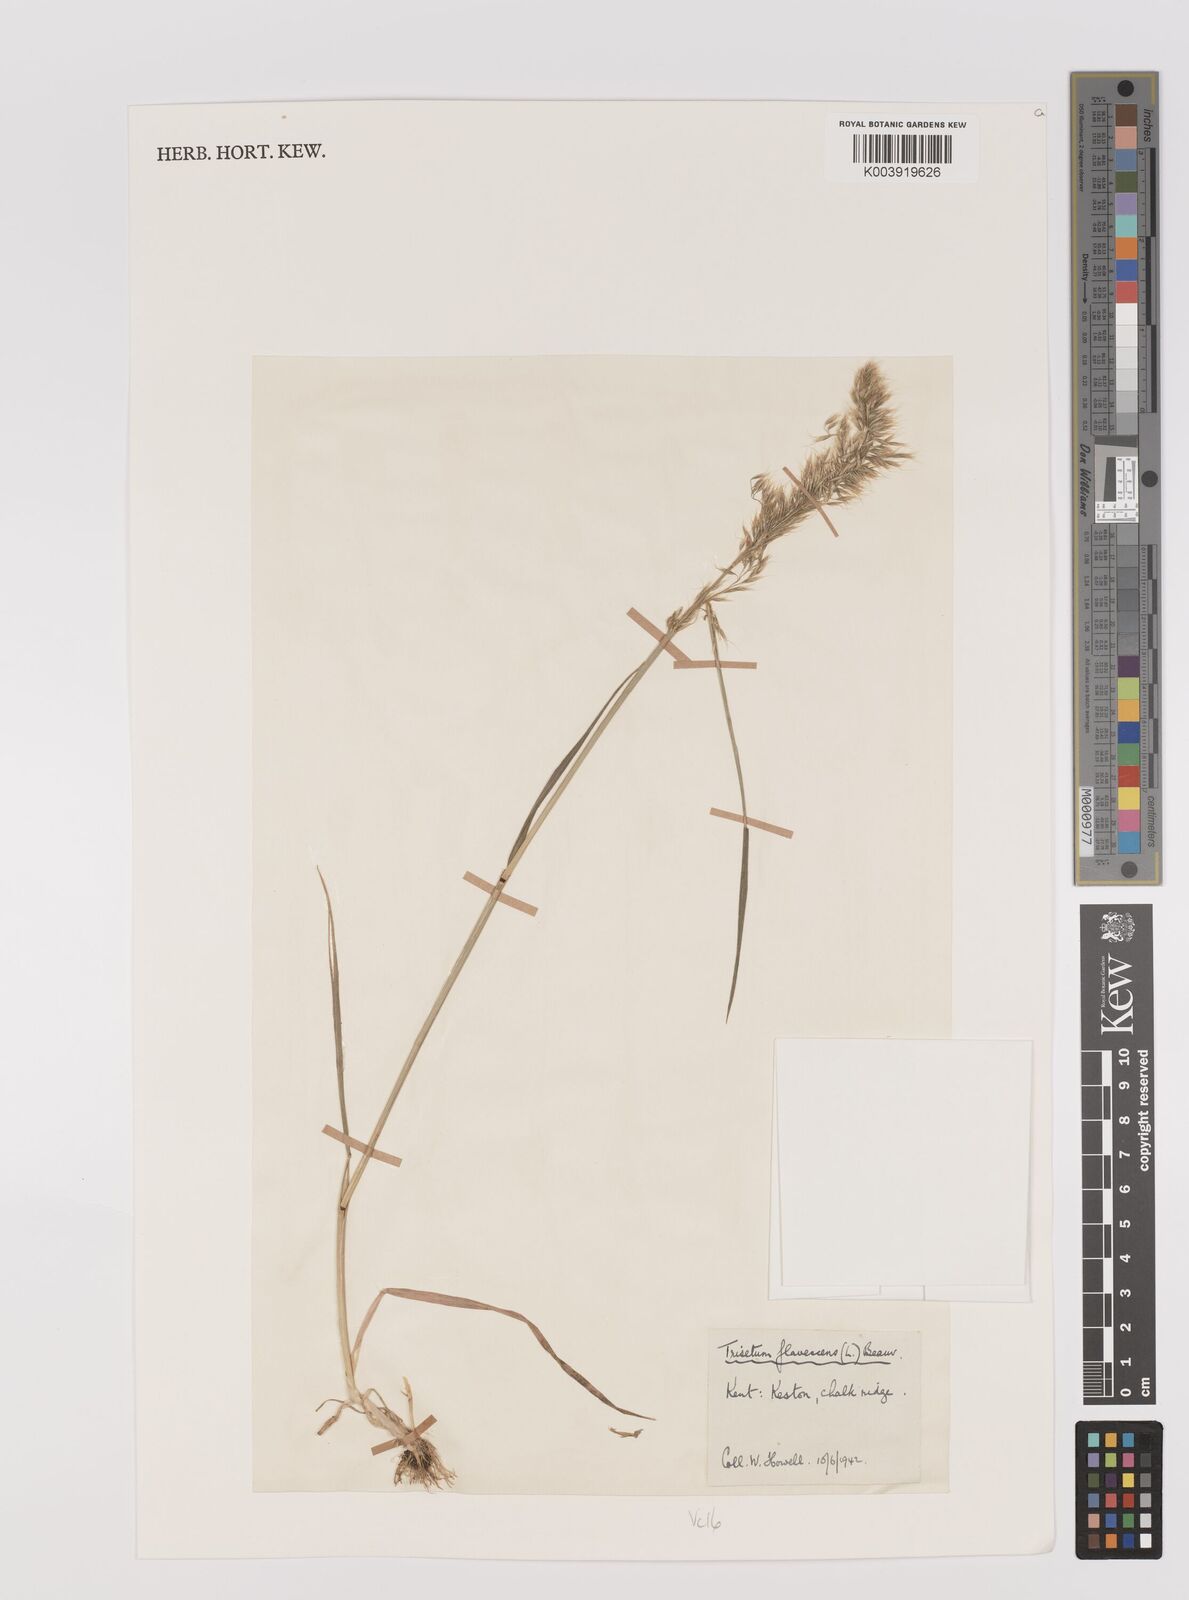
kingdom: Plantae
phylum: Tracheophyta
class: Liliopsida
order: Poales
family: Poaceae
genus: Trisetum
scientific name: Trisetum flavescens
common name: Yellow oat-grass
